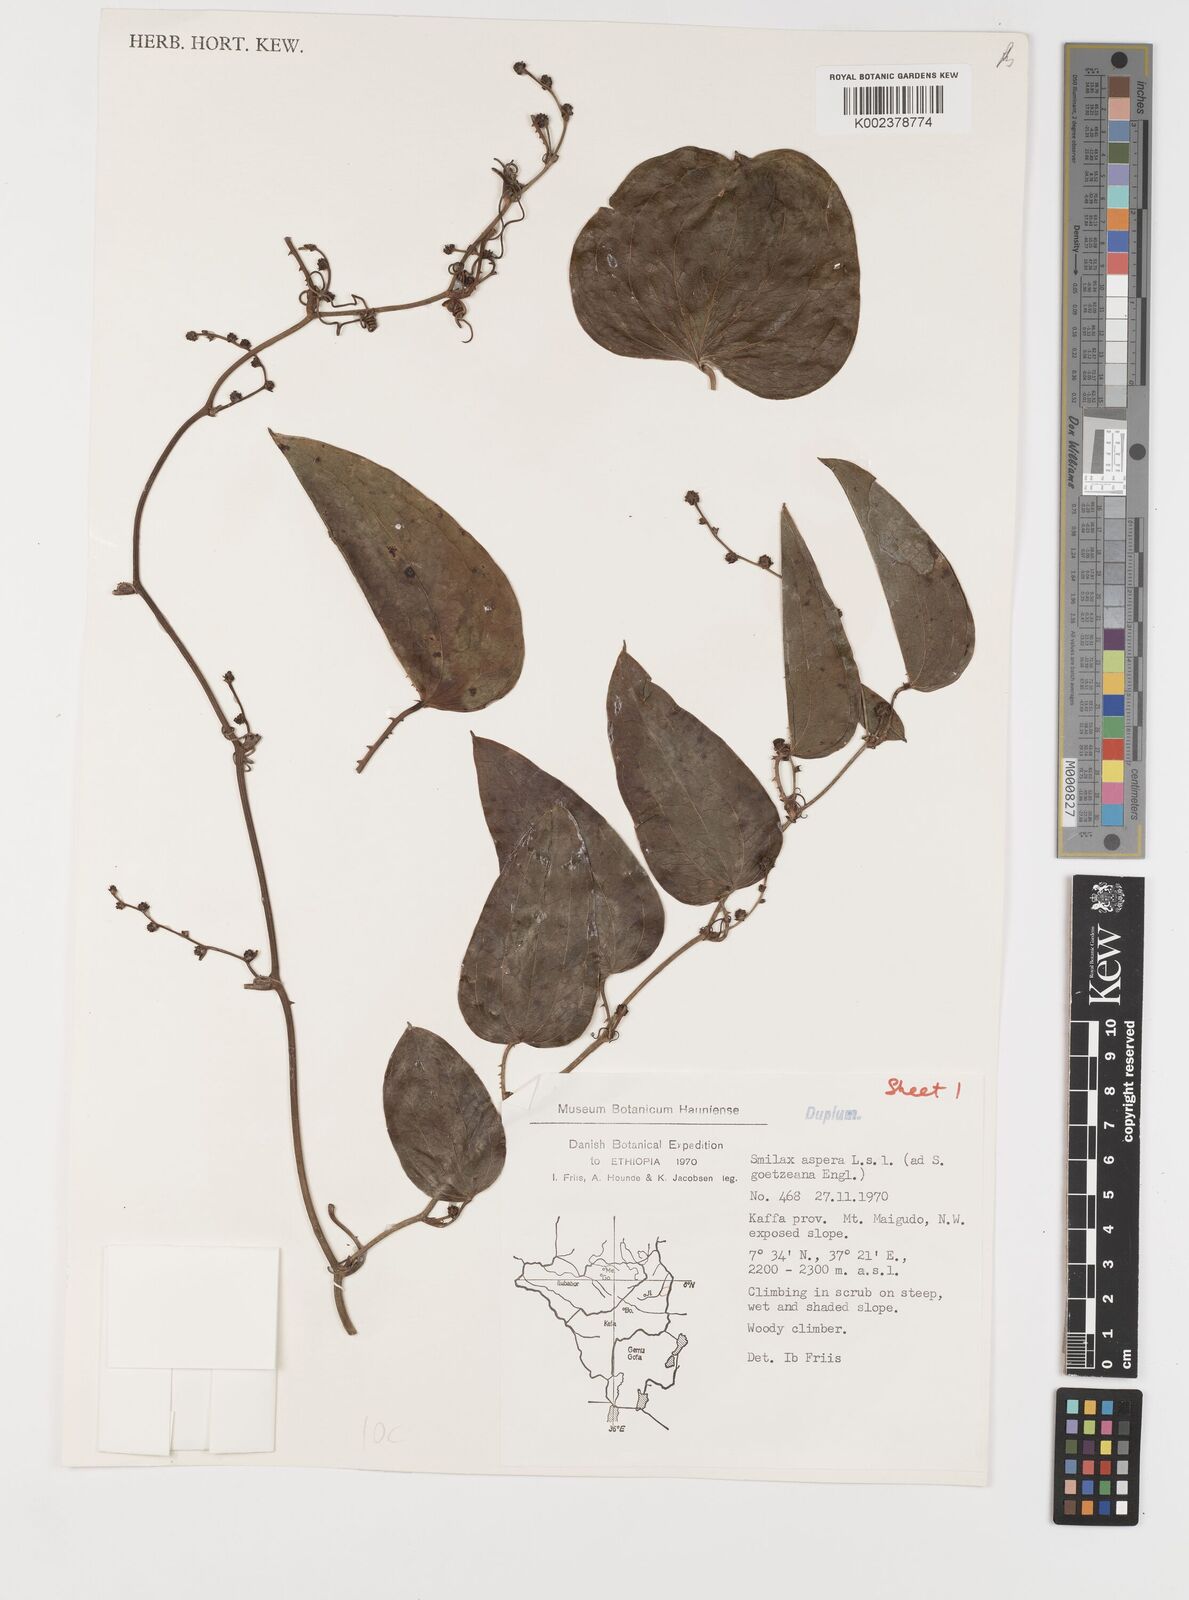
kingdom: Plantae
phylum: Tracheophyta
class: Liliopsida
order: Liliales
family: Smilacaceae
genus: Smilax
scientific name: Smilax aspera
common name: Common smilax
